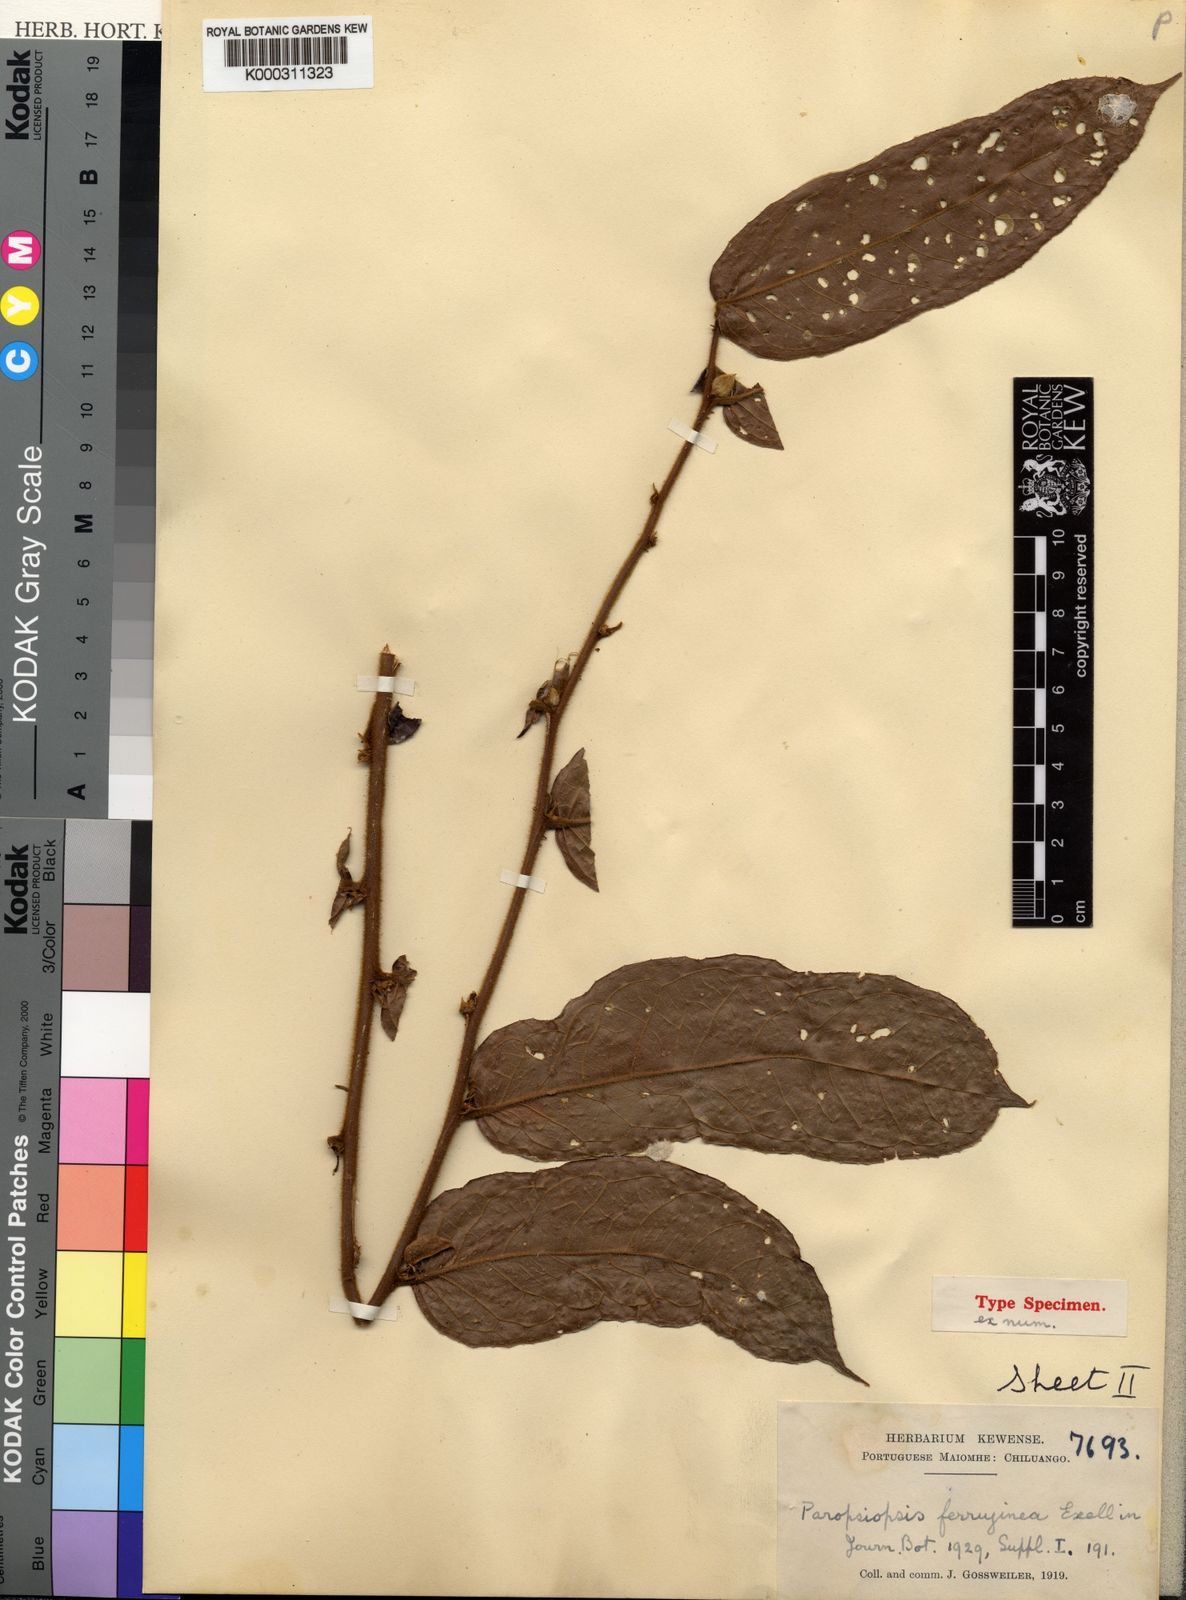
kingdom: Plantae
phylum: Tracheophyta
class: Magnoliopsida
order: Malpighiales
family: Passifloraceae
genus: Paropsiopsis
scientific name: Paropsiopsis ferruginea
